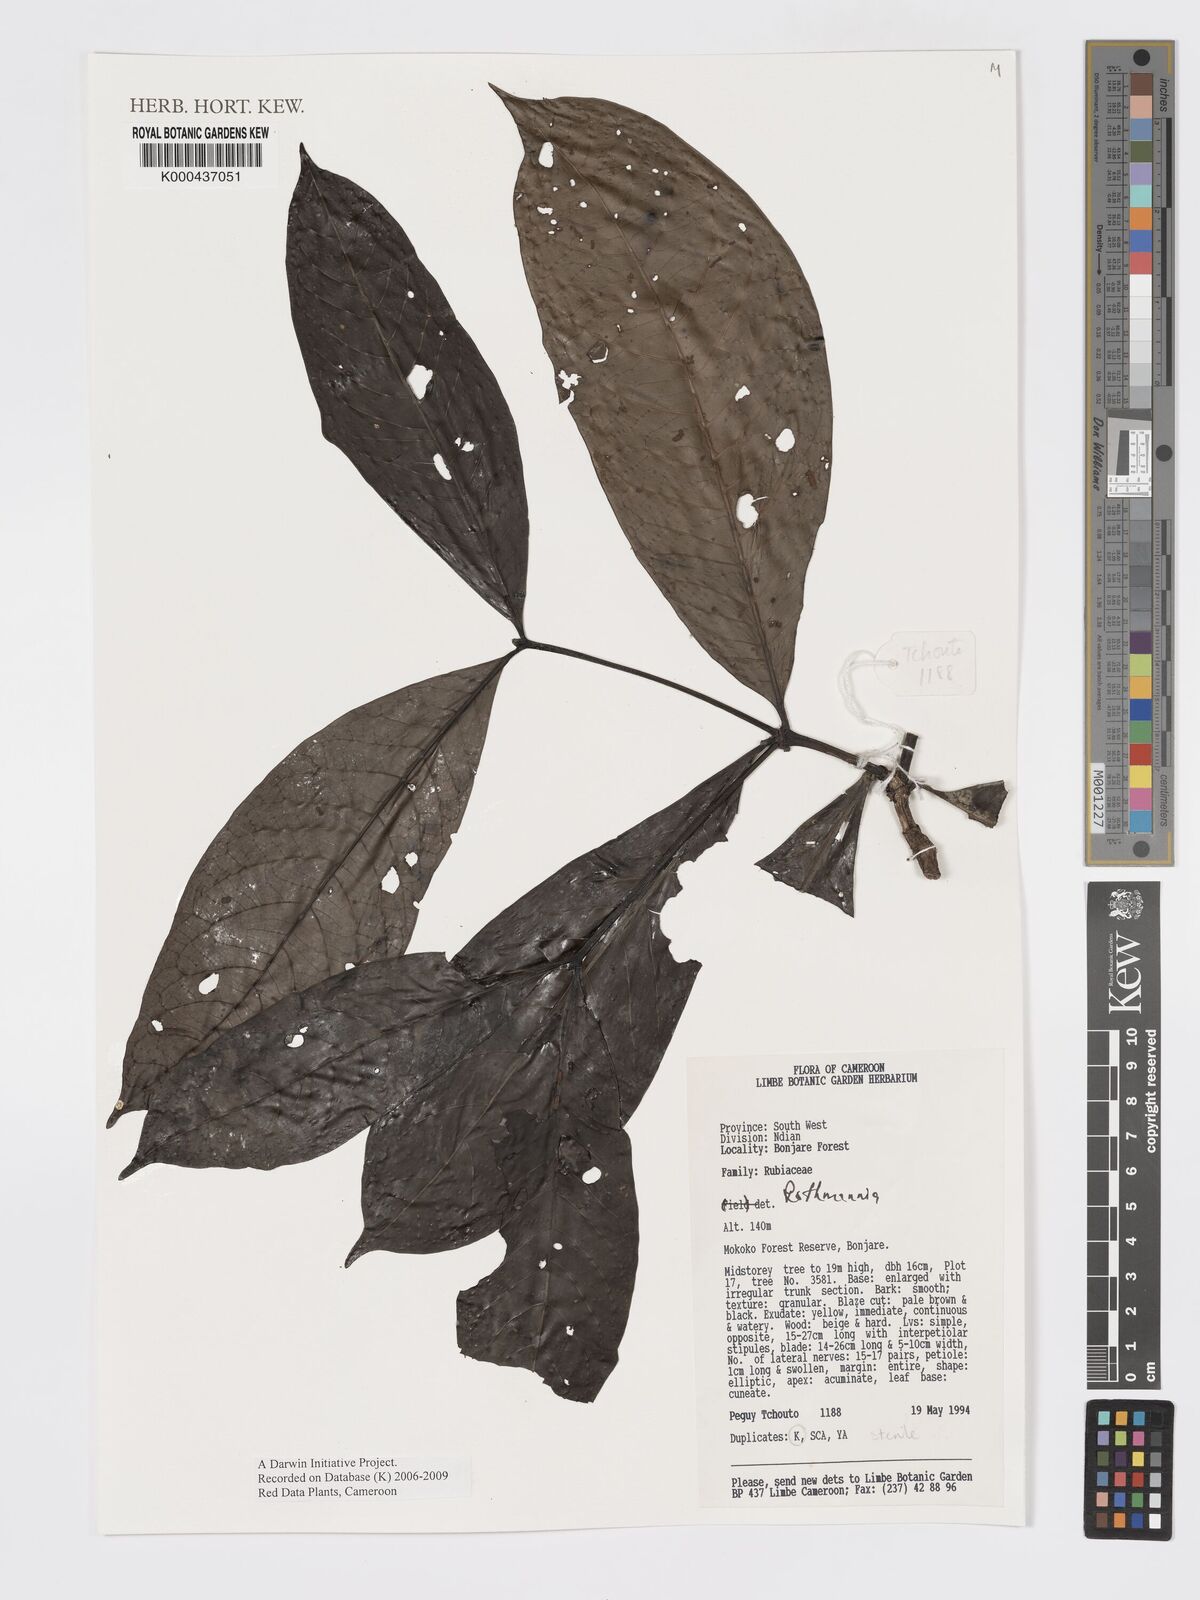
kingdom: Plantae
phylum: Tracheophyta
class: Magnoliopsida
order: Gentianales
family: Rubiaceae
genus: Rothmannia
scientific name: Rothmannia
